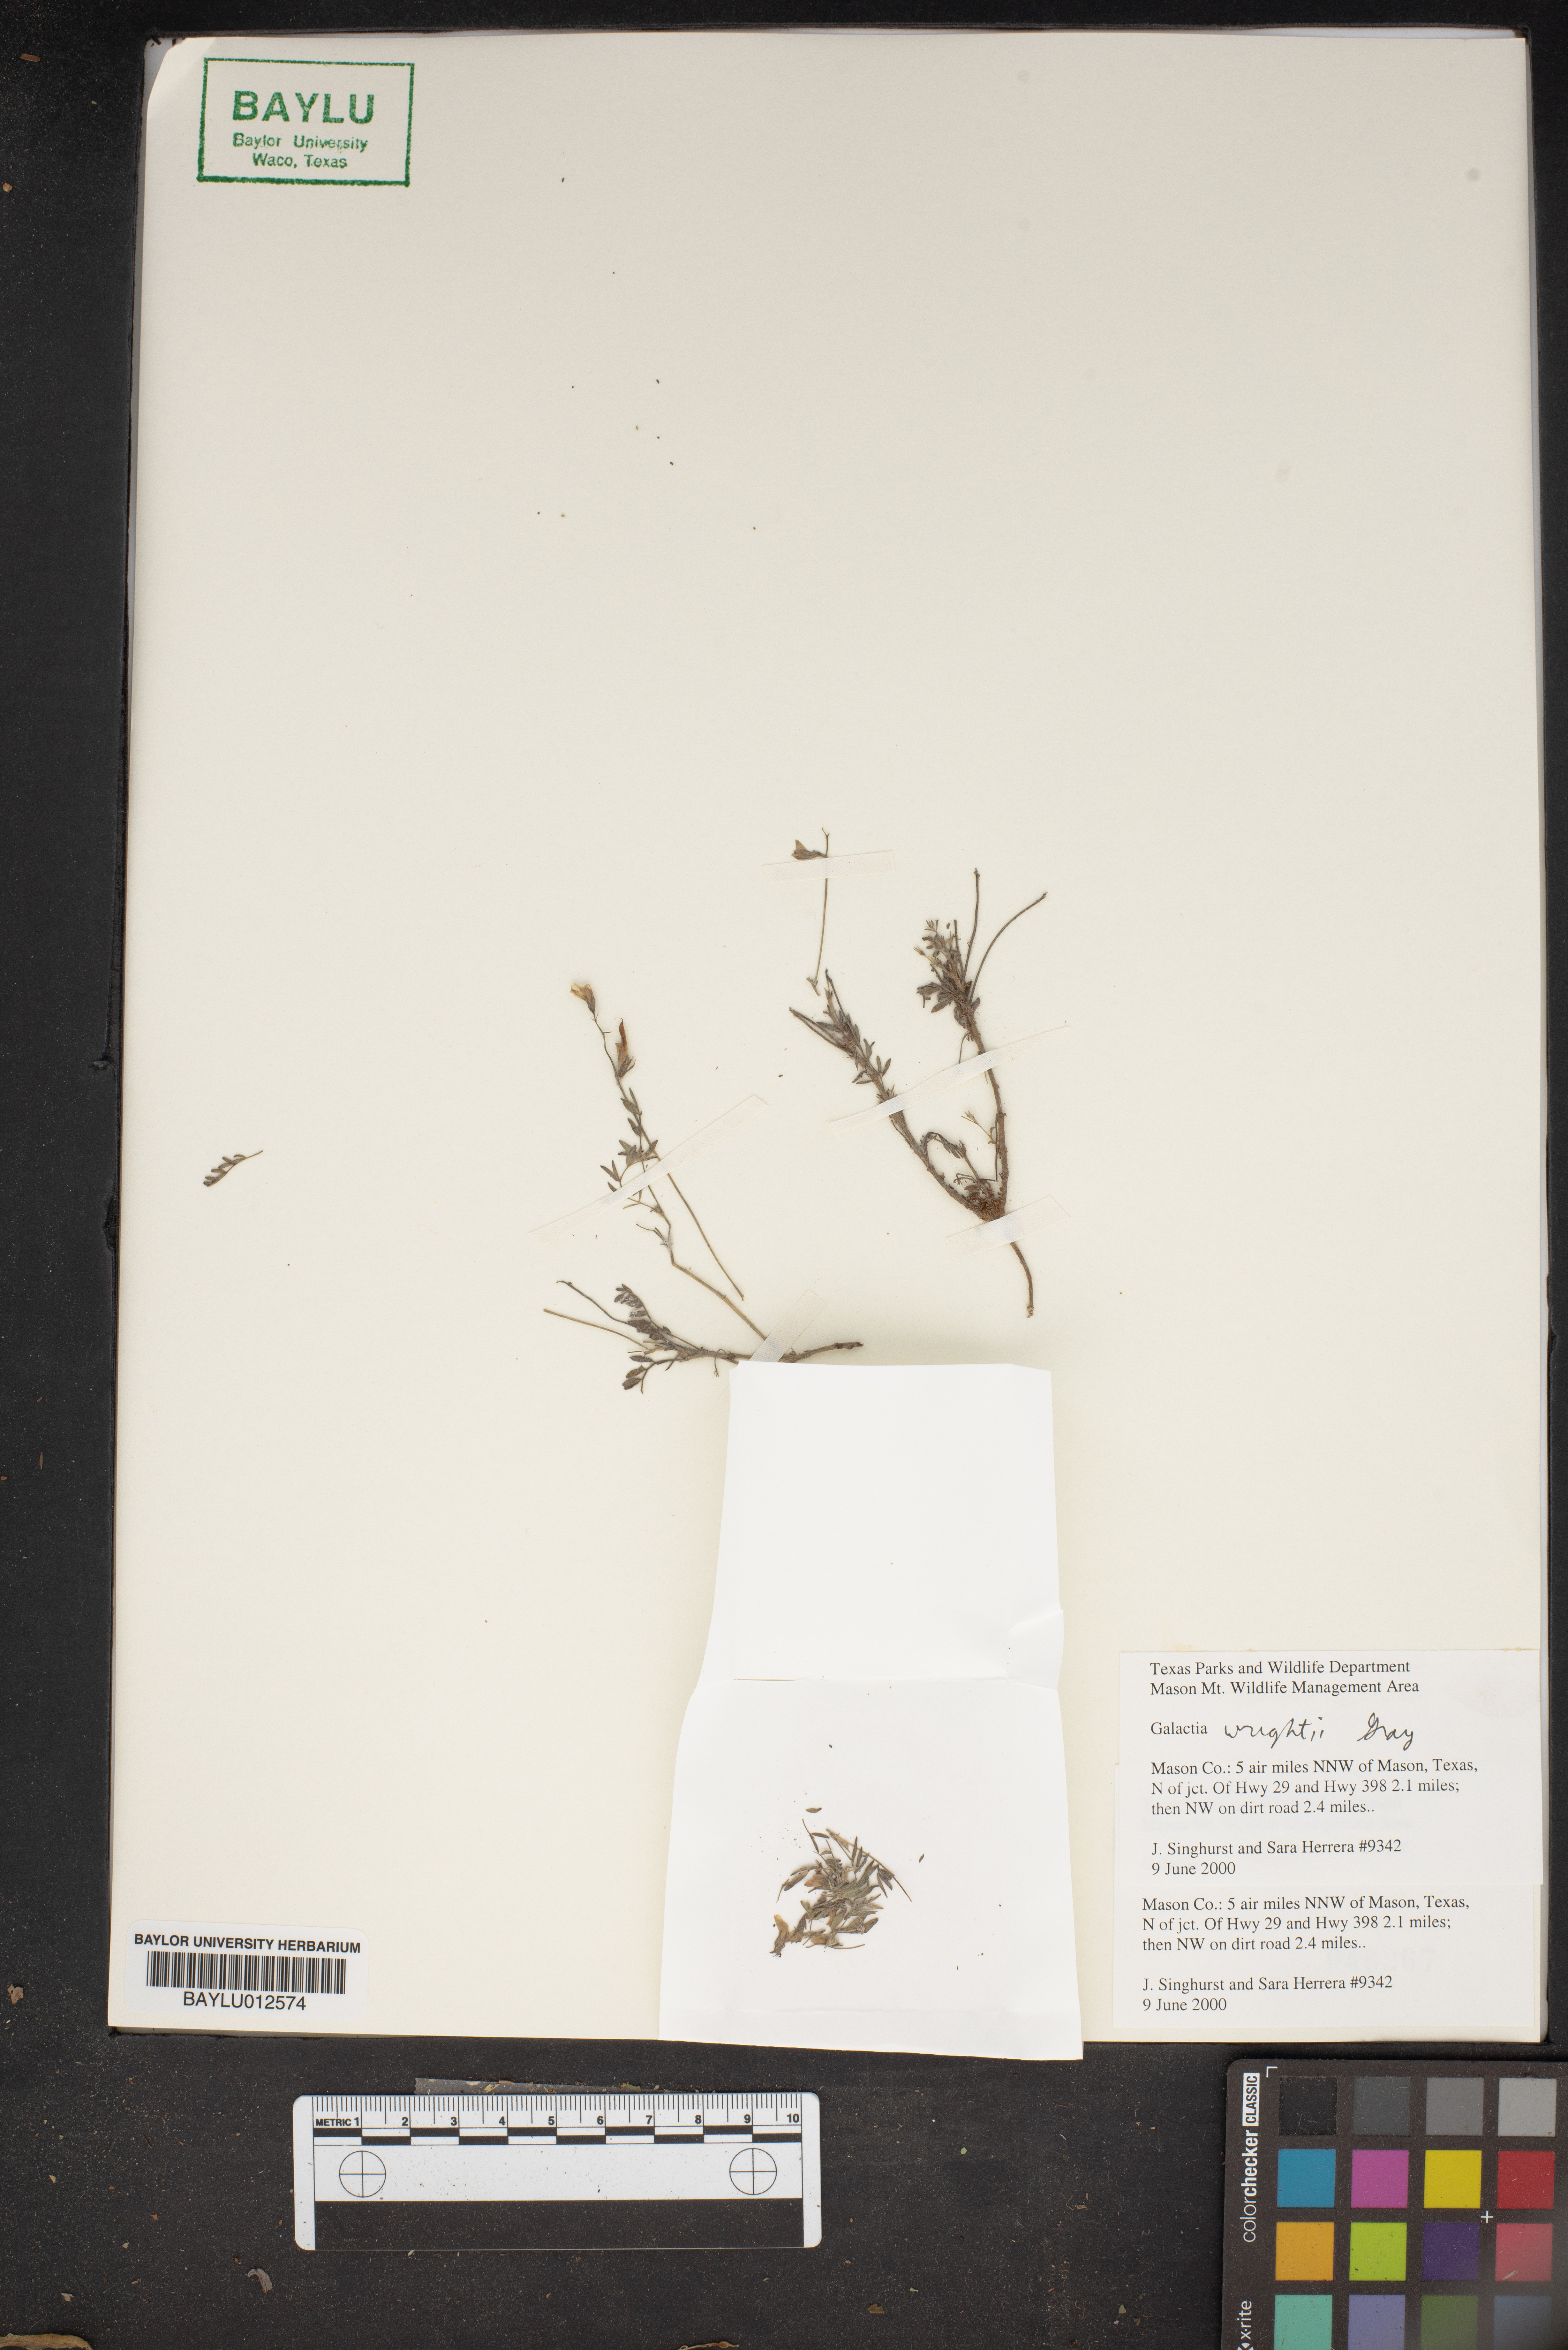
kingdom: Plantae
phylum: Tracheophyta
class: Magnoliopsida
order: Fabales
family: Fabaceae
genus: Galactia
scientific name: Galactia wrightii
